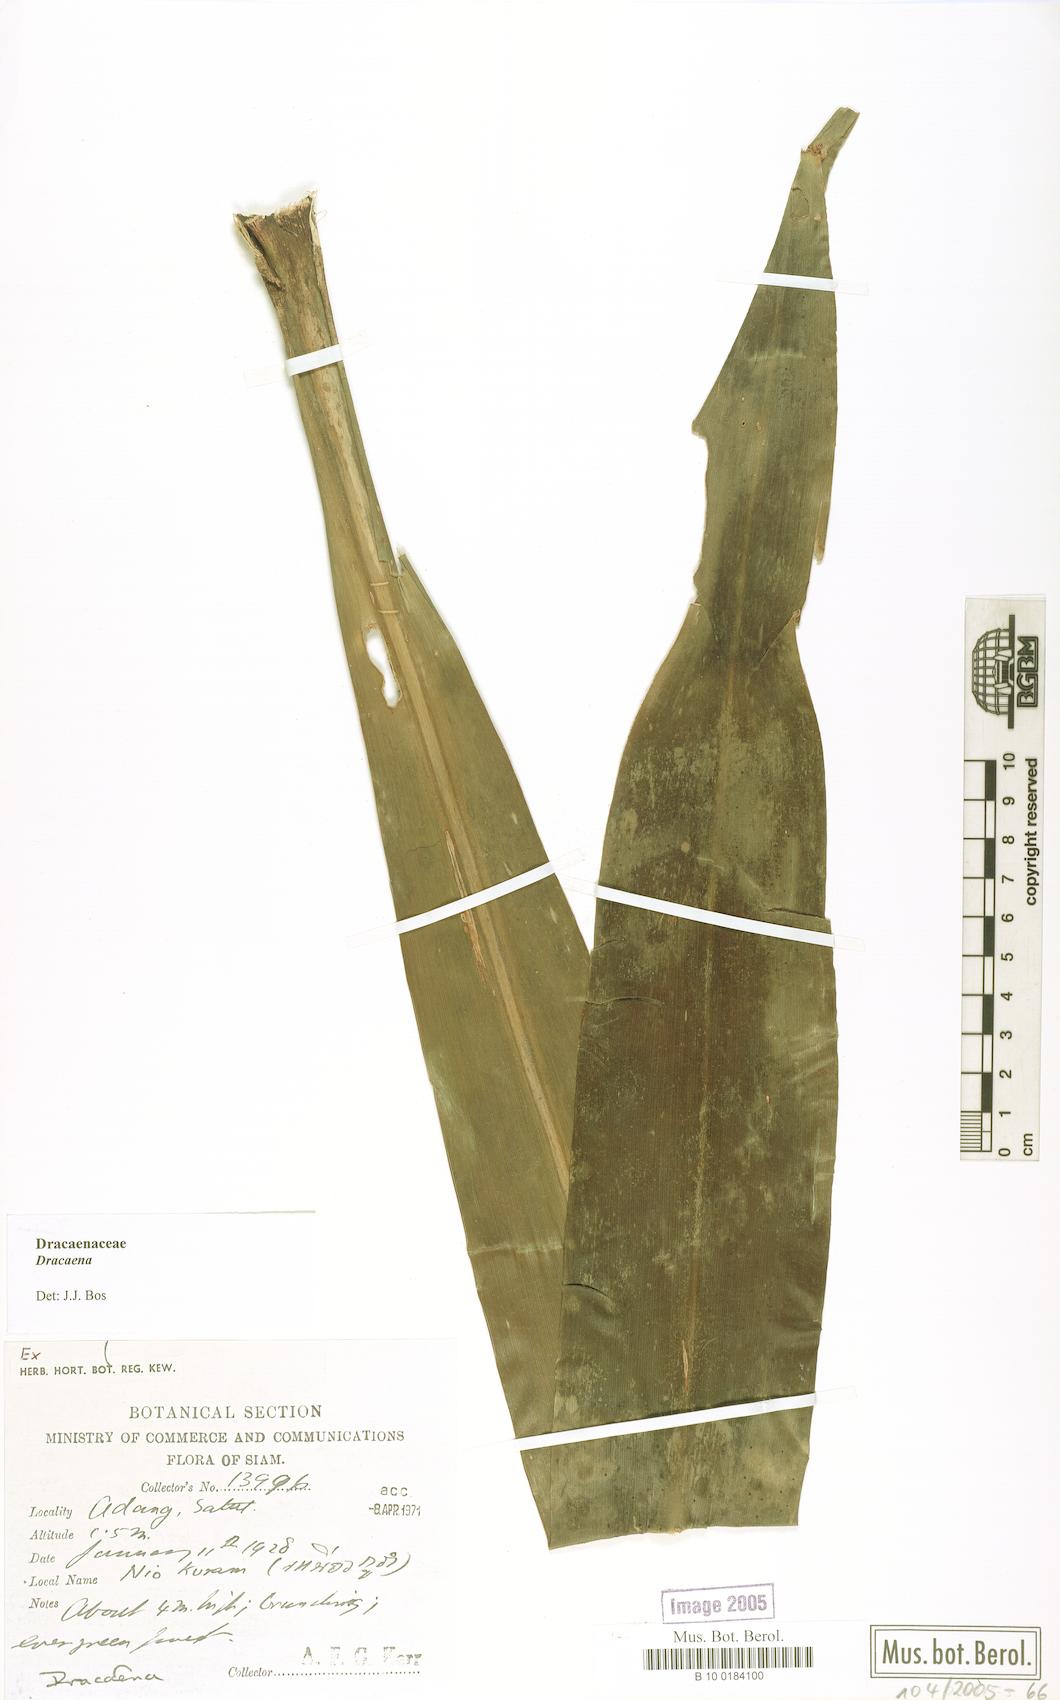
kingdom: Plantae
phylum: Tracheophyta
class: Liliopsida
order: Asparagales
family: Asparagaceae
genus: Dracaena
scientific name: Dracaena
